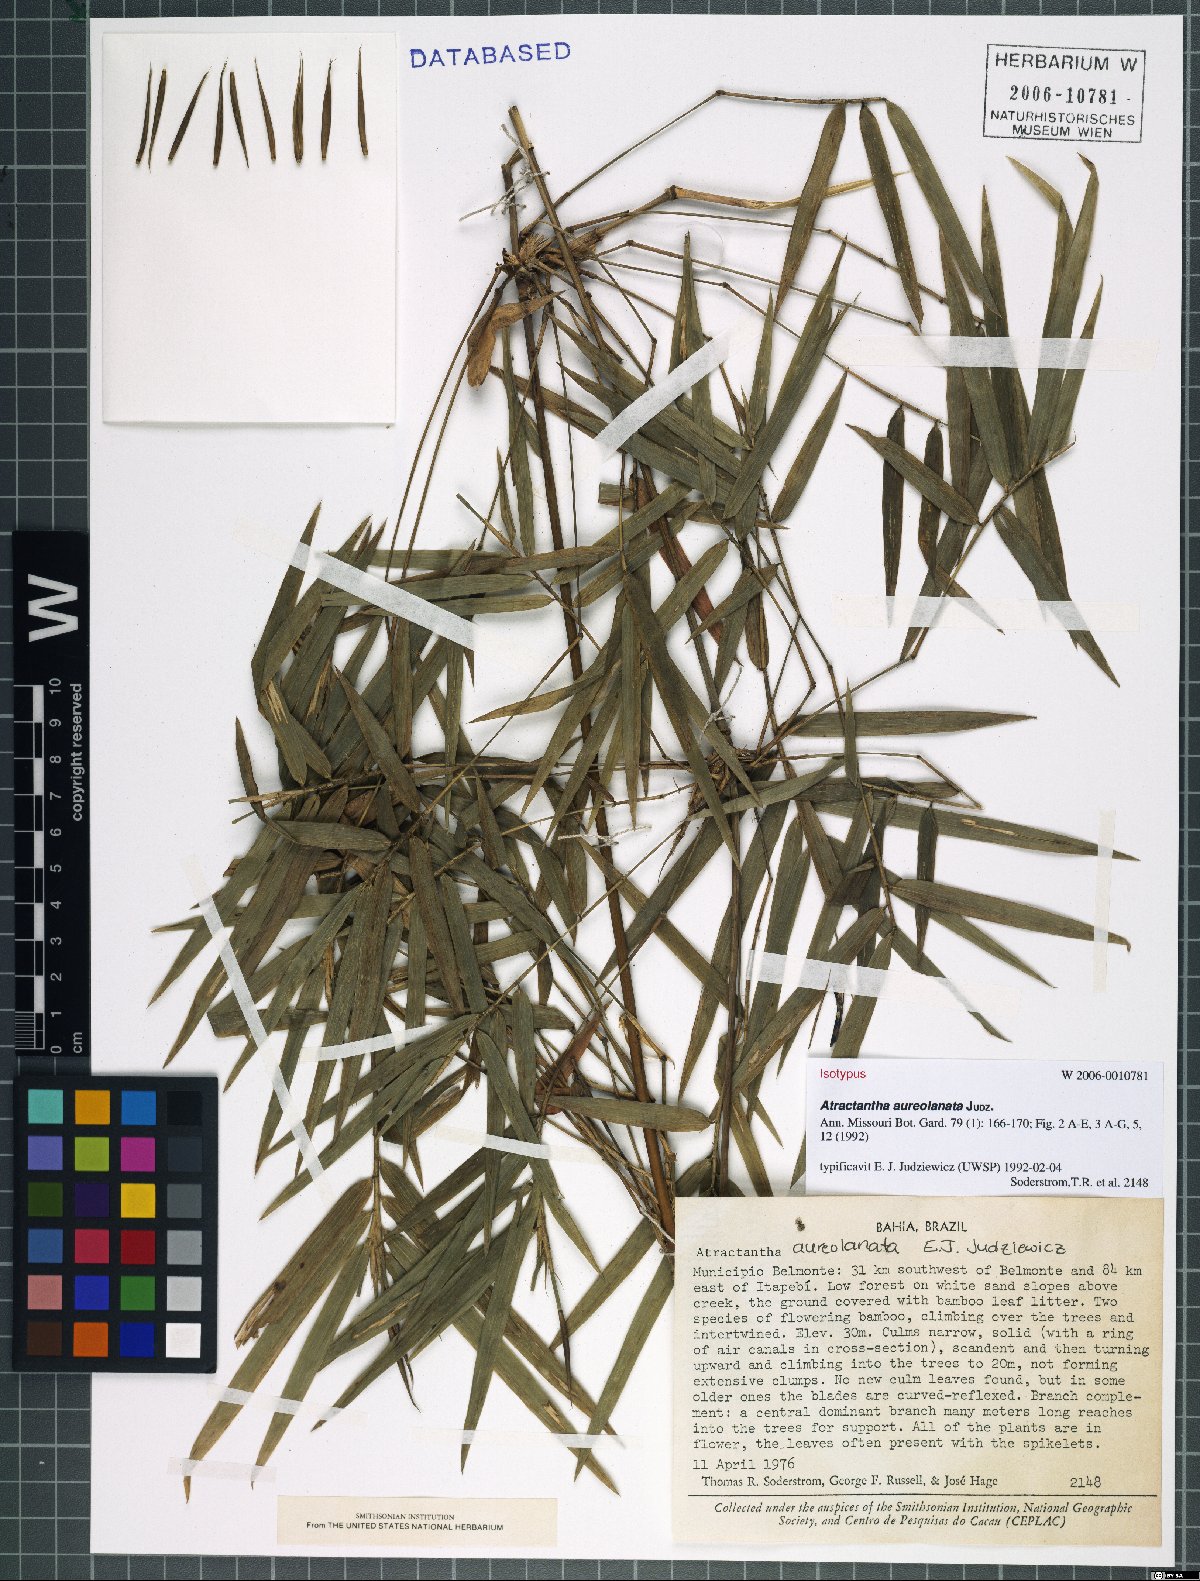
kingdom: Plantae
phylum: Tracheophyta
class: Liliopsida
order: Poales
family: Poaceae
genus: Atractantha
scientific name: Atractantha aureolanata
